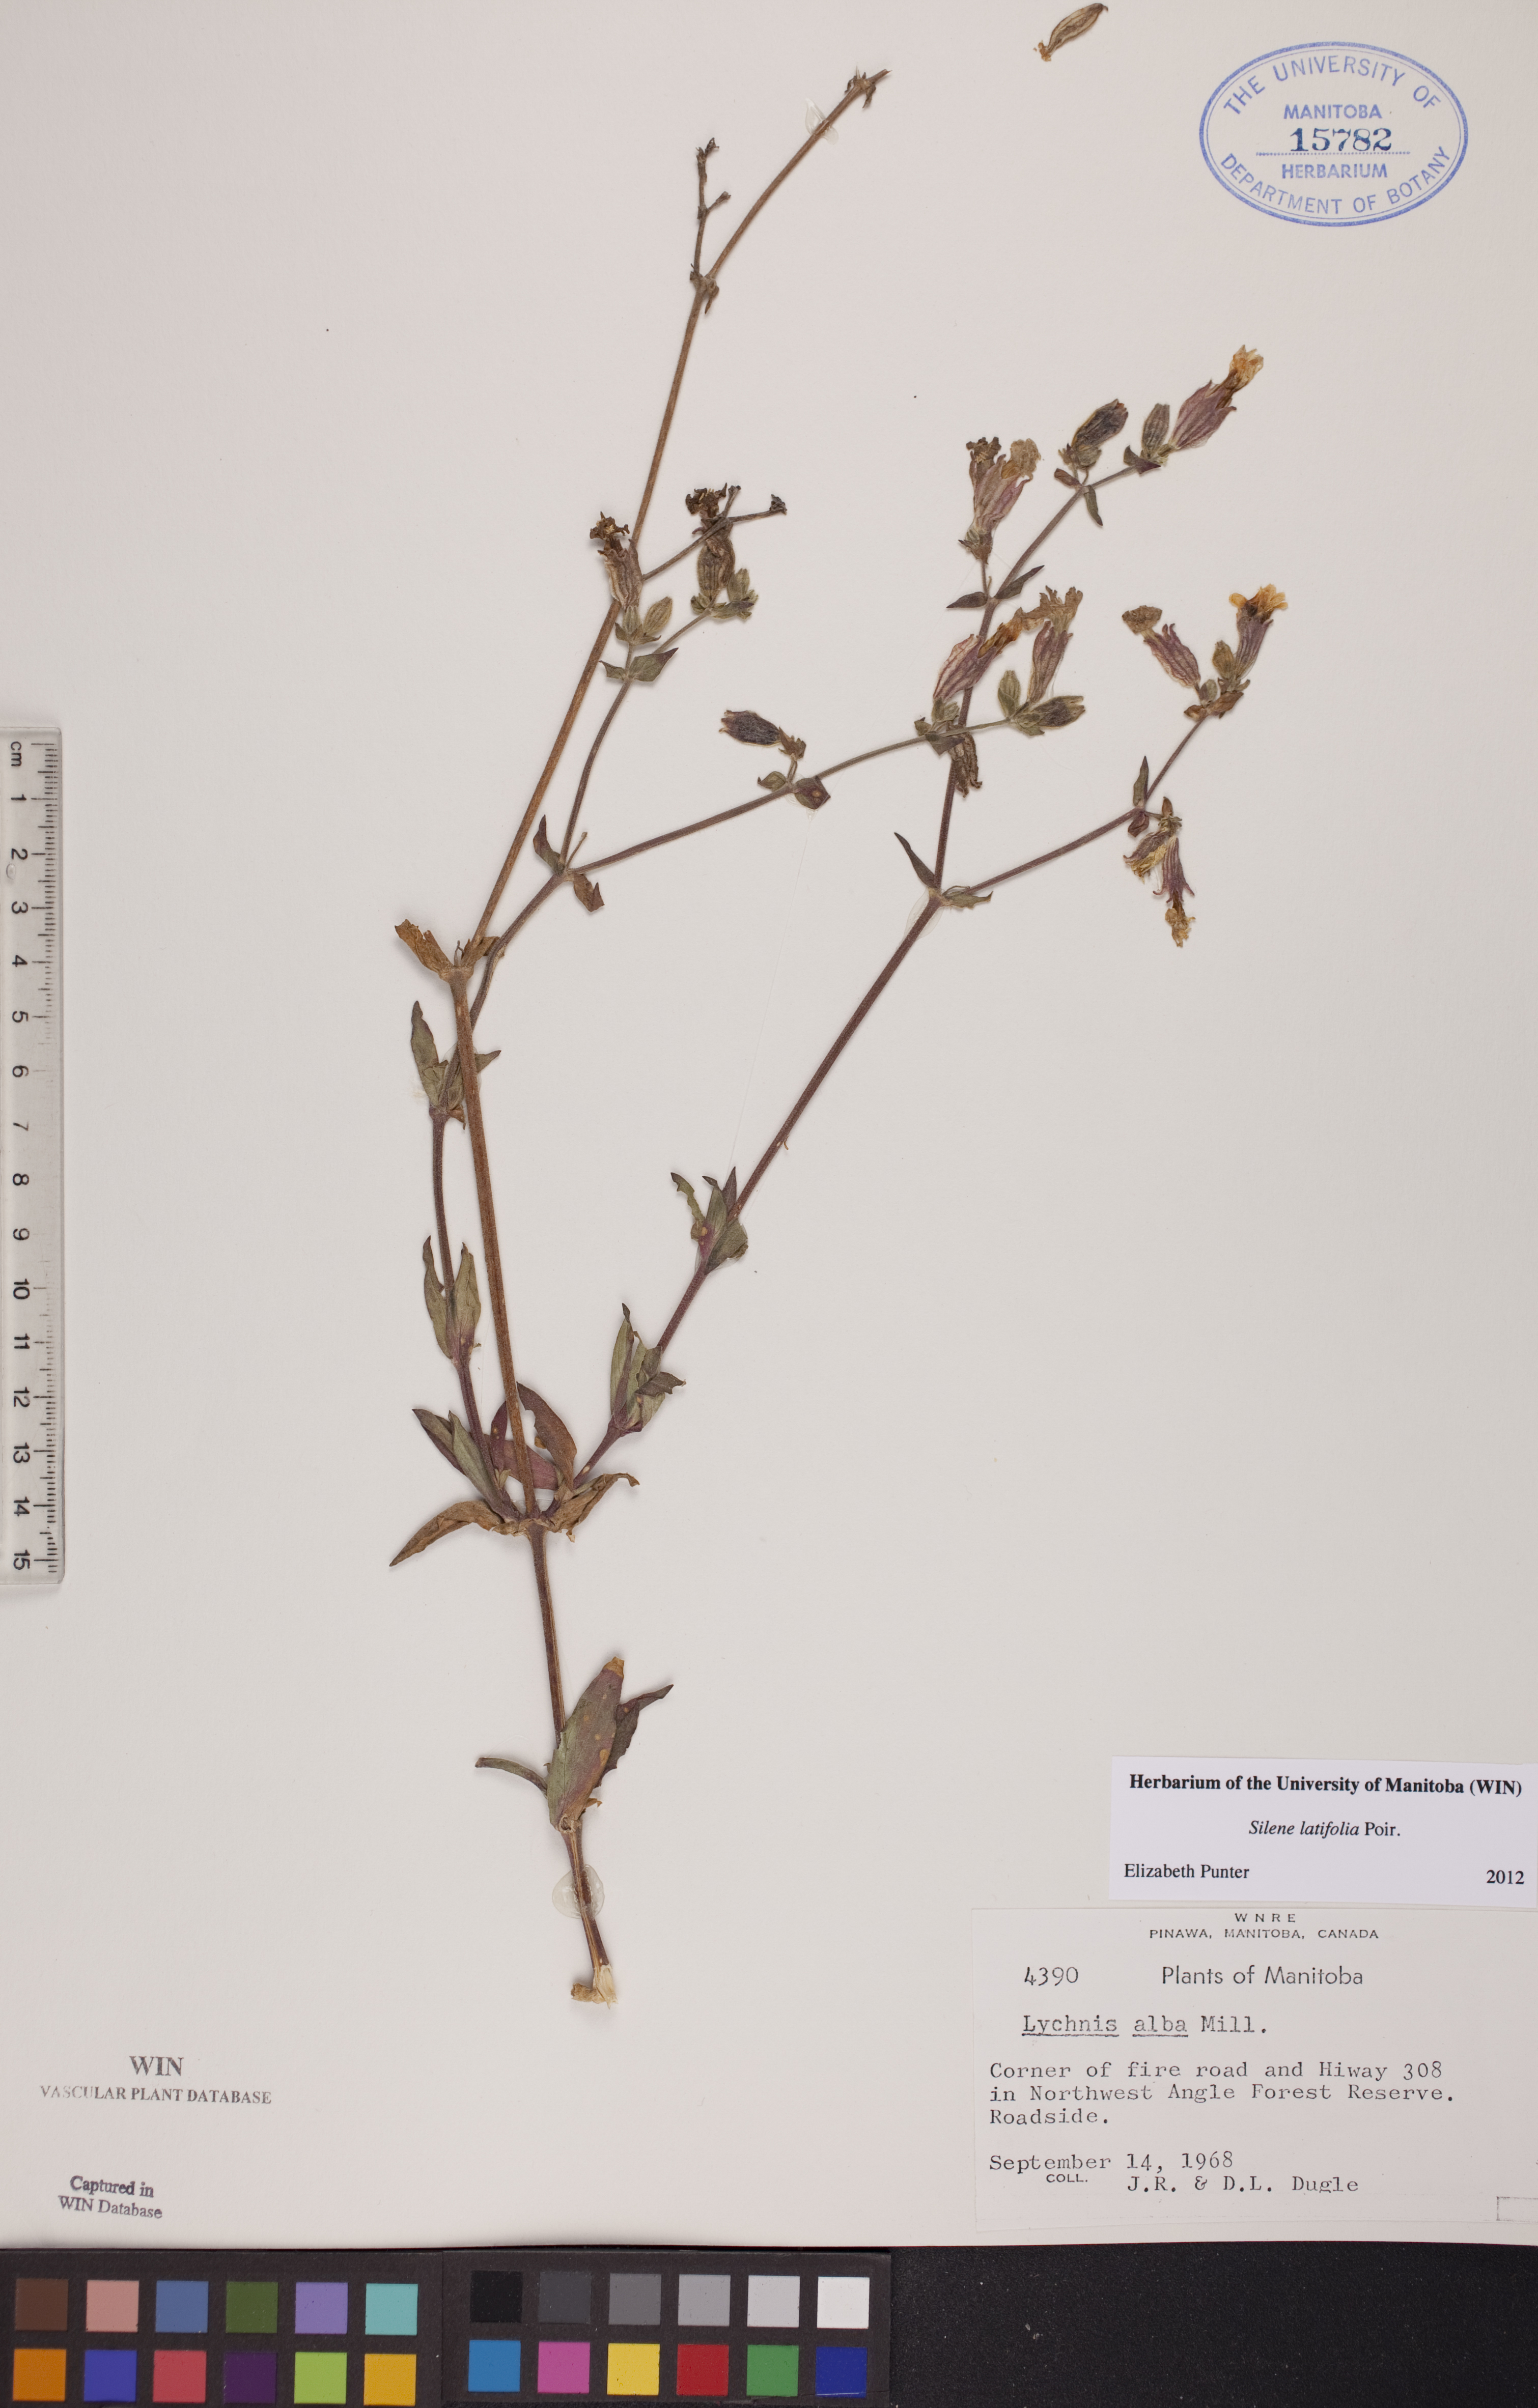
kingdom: Plantae
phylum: Tracheophyta
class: Magnoliopsida
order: Caryophyllales
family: Caryophyllaceae
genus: Silene
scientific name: Silene latifolia
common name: White campion
